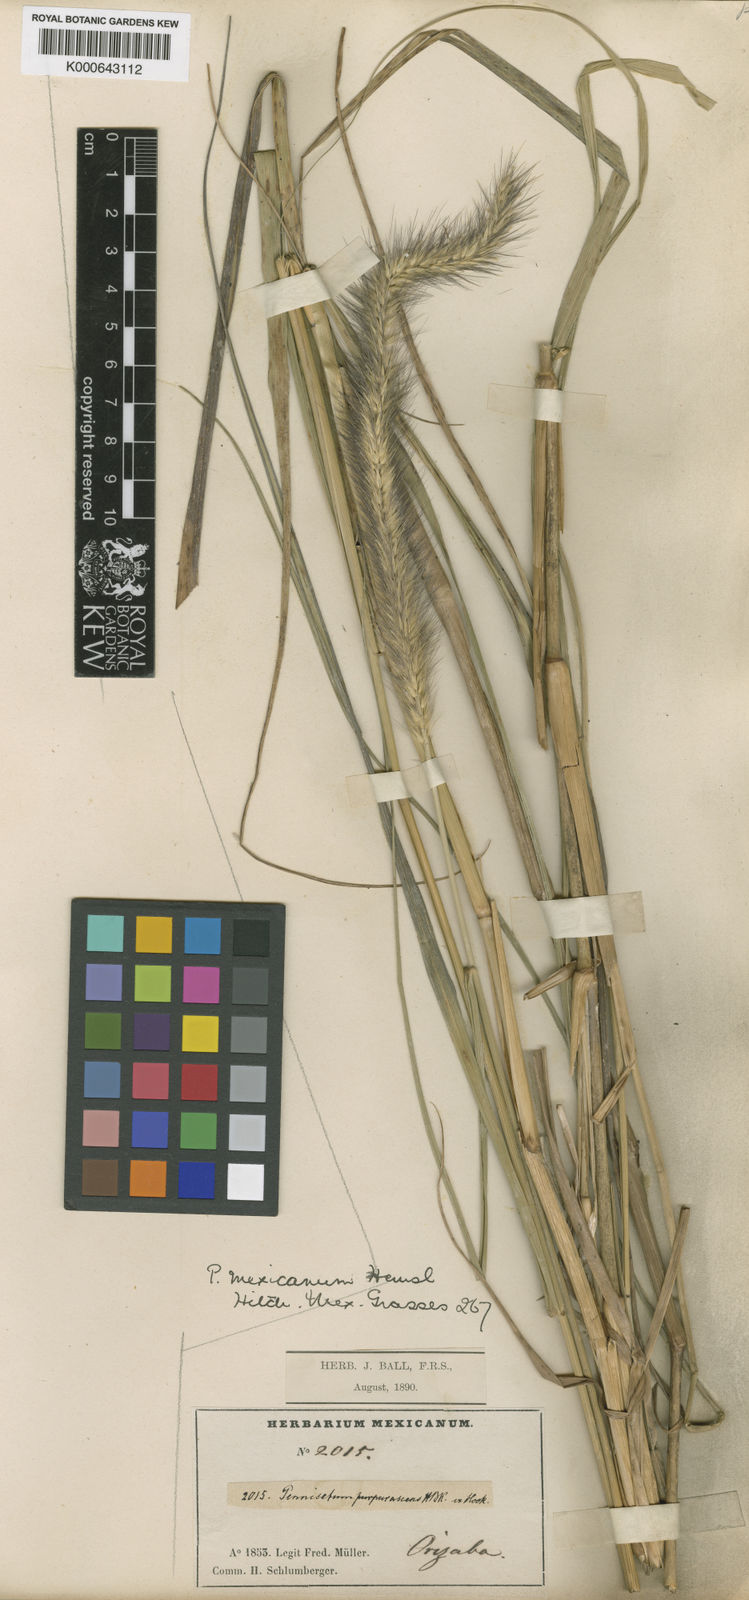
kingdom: Plantae
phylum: Tracheophyta
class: Liliopsida
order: Poales
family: Poaceae
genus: Cenchrus
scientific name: Cenchrus complanatus
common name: Nicaraguan fountaingrass
